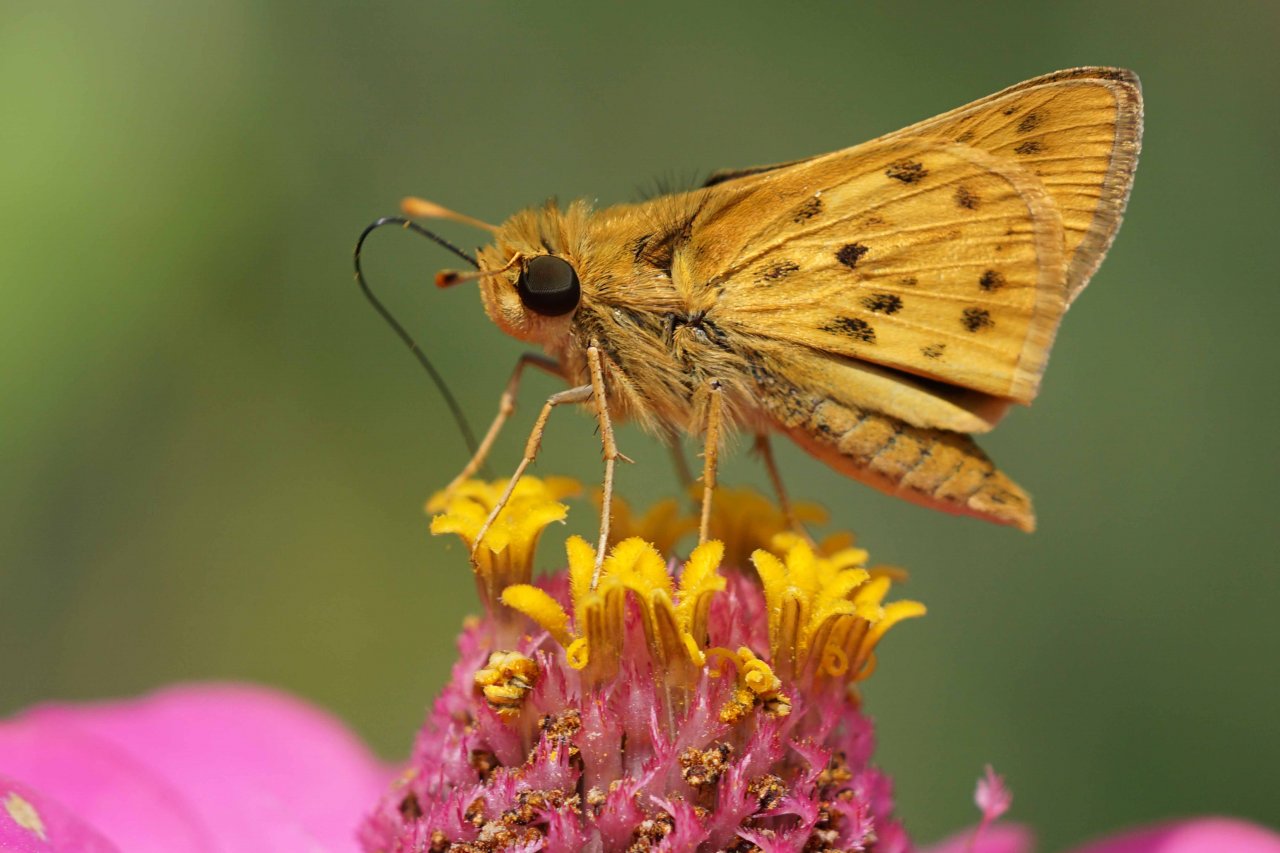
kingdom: Animalia
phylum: Arthropoda
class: Insecta
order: Lepidoptera
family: Hesperiidae
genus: Hylephila
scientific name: Hylephila phyleus
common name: Fiery Skipper
